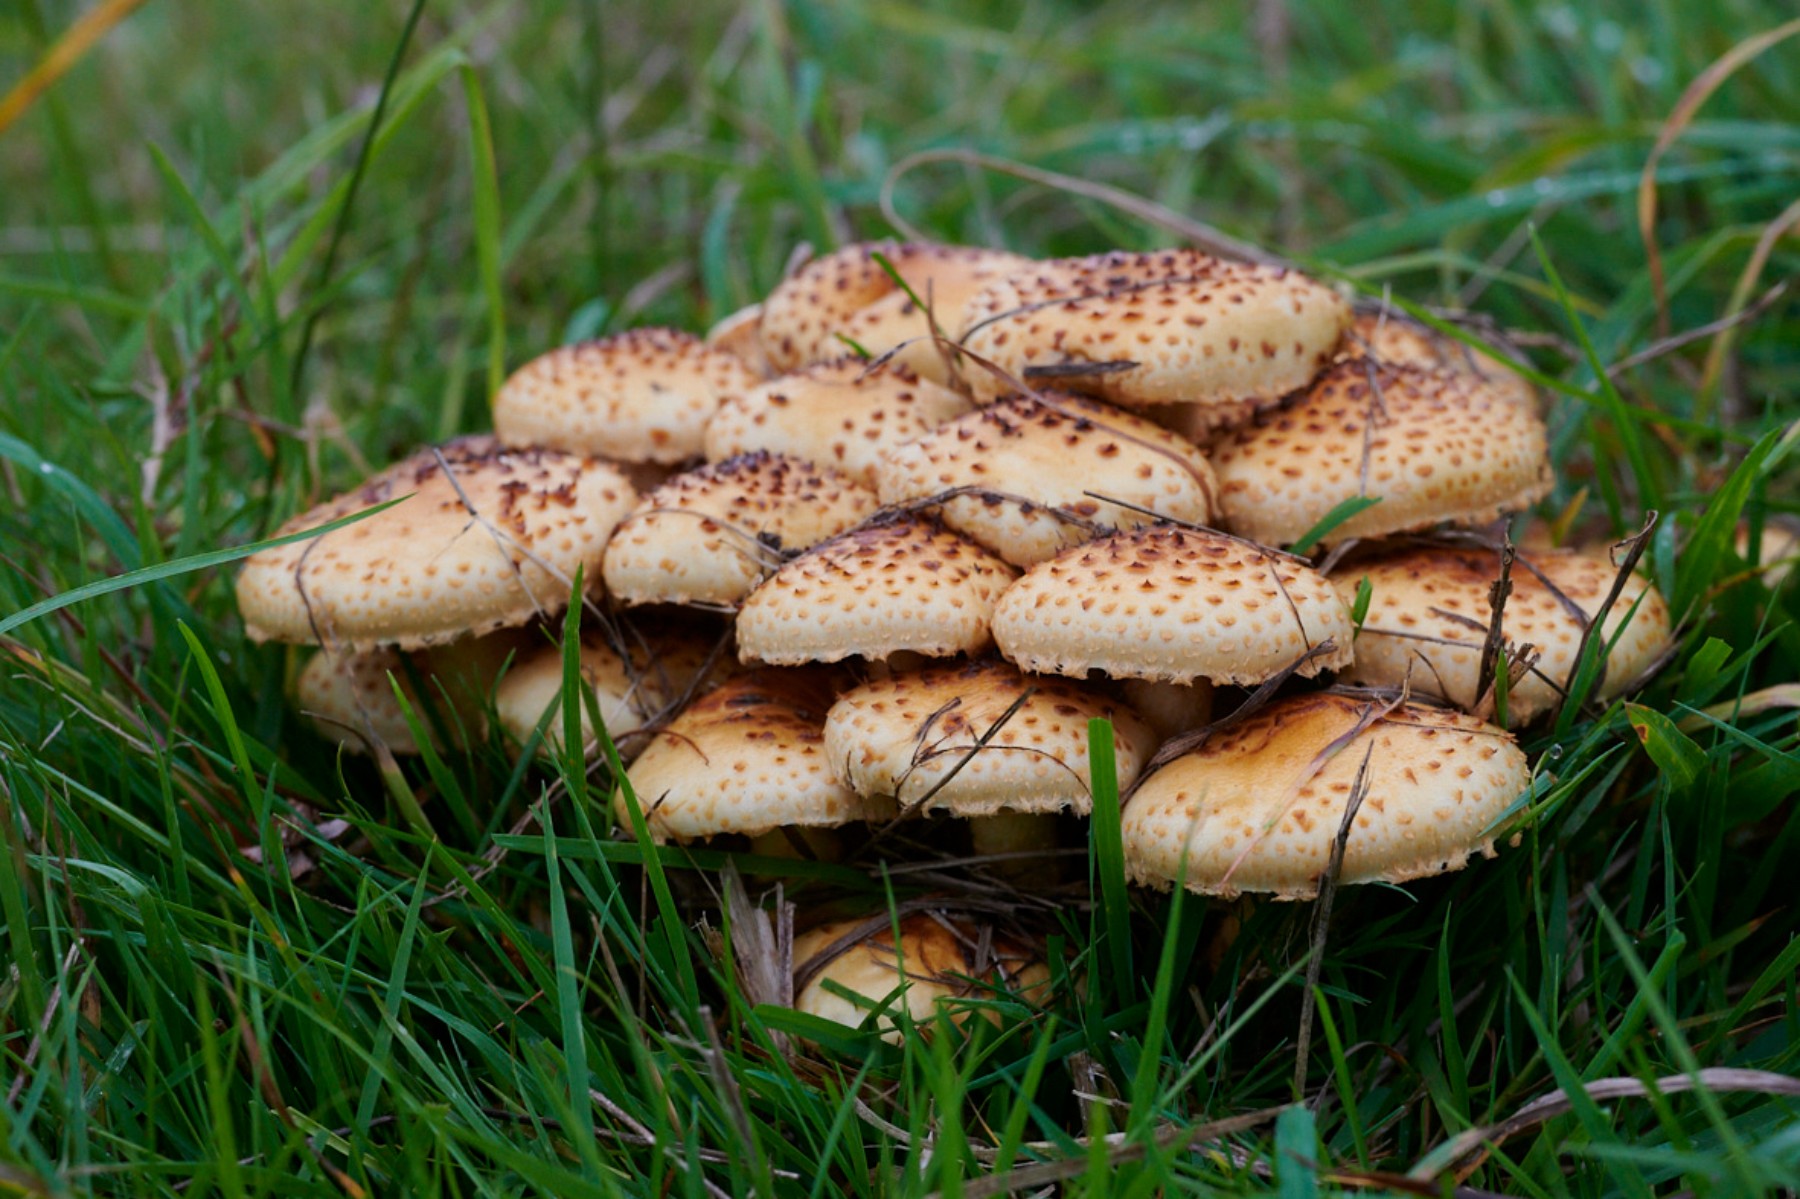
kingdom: Fungi
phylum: Basidiomycota
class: Agaricomycetes
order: Agaricales
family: Strophariaceae
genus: Pholiota
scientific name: Pholiota jahnii
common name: slimet skælhat
